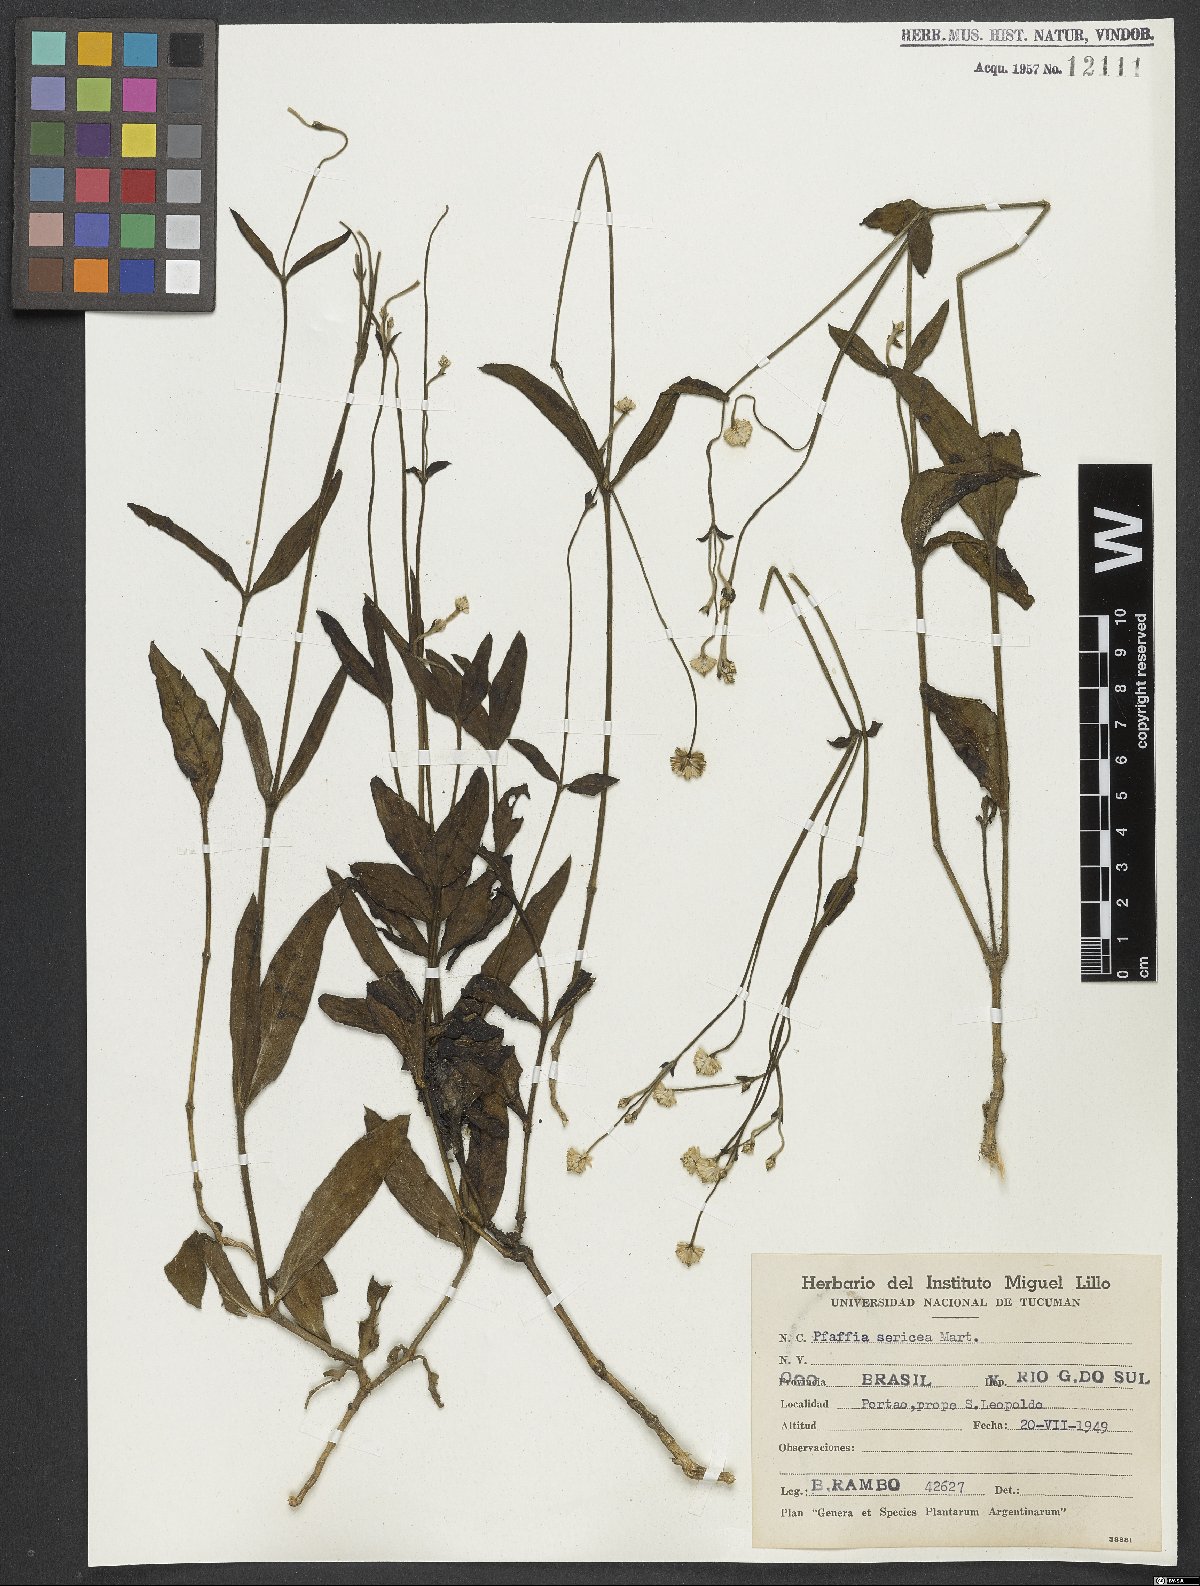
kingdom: Plantae
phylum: Tracheophyta
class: Magnoliopsida
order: Caryophyllales
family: Amaranthaceae
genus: Pfaffia
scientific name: Pfaffia tuberosa
